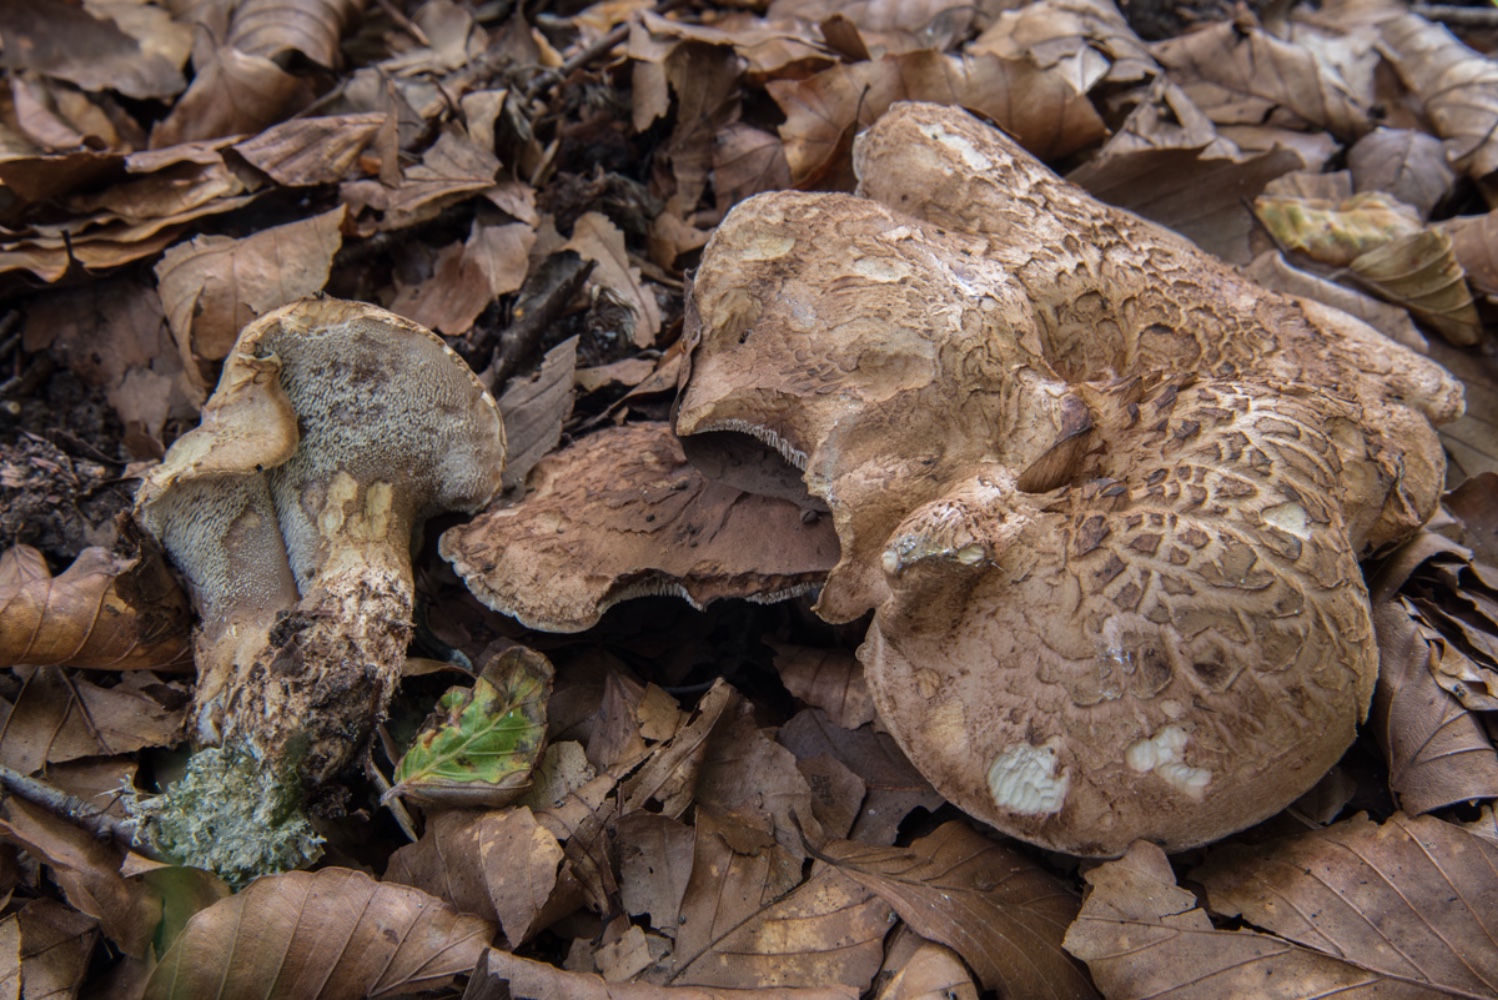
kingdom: Fungi
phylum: Basidiomycota
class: Agaricomycetes
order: Thelephorales
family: Bankeraceae
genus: Hydnellum
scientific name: Hydnellum lepidum
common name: skrænt-korkpigsvamp
